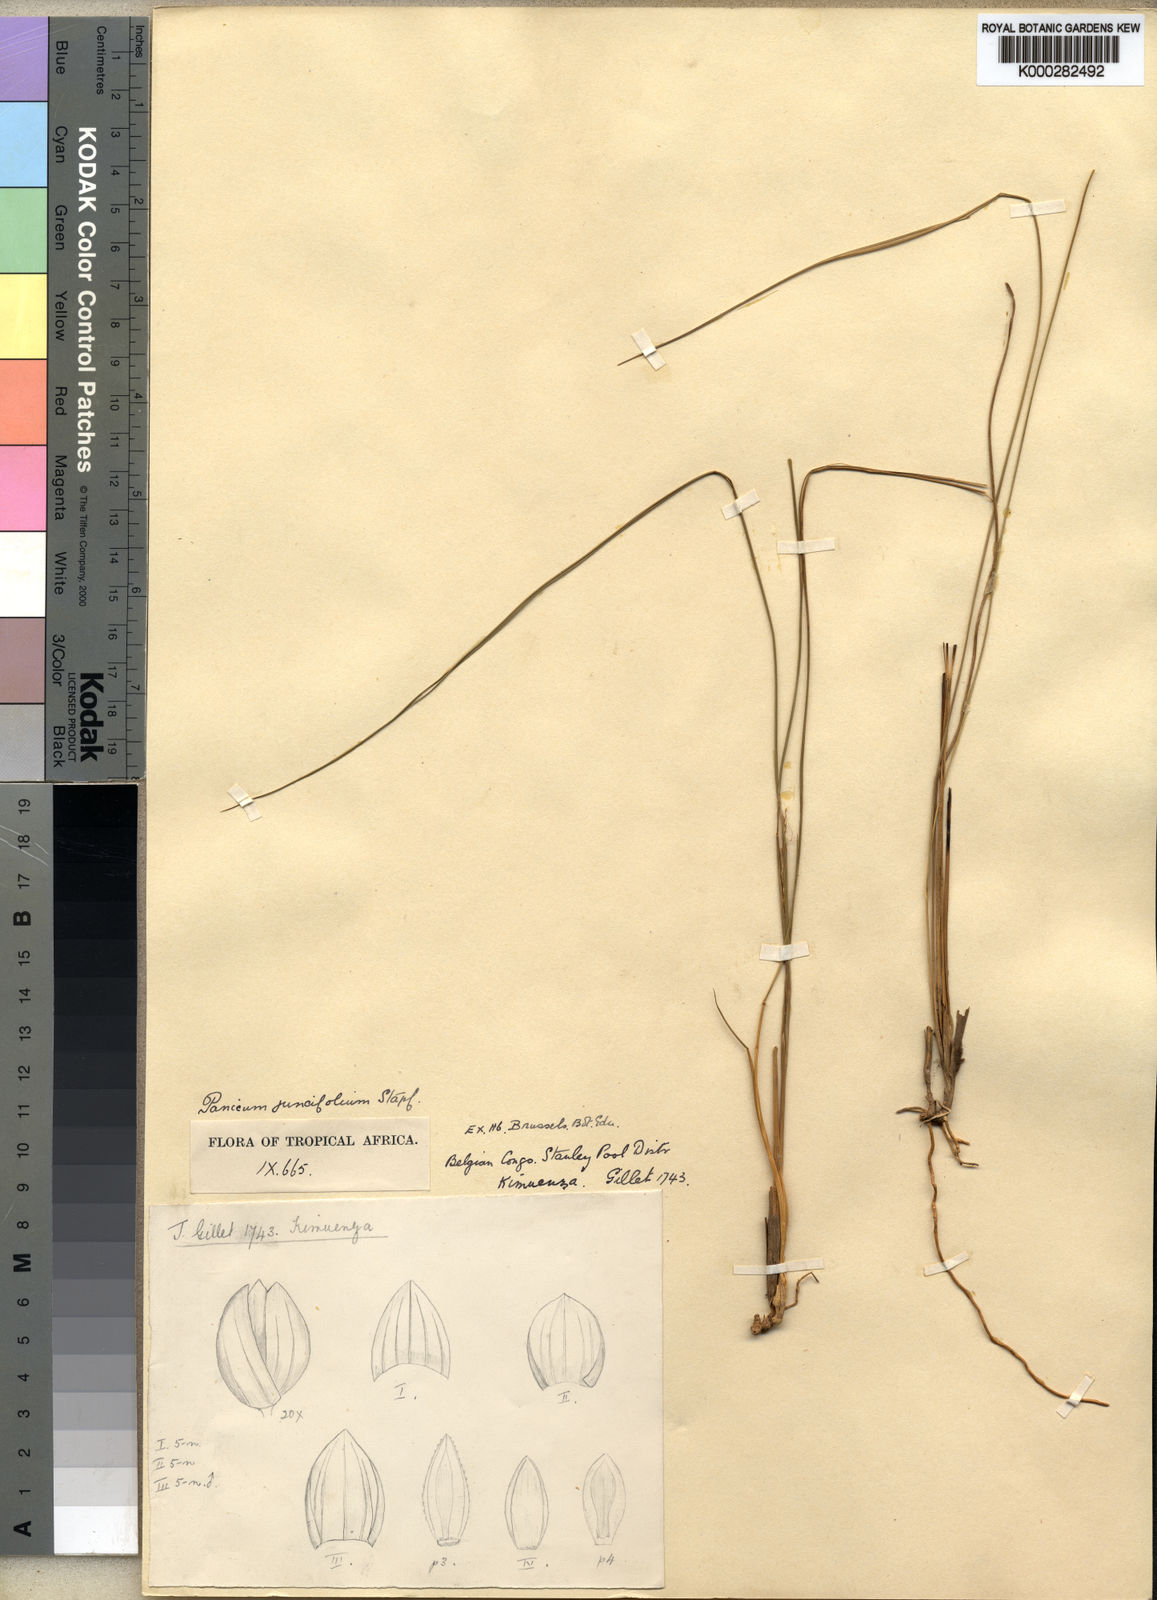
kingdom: Plantae
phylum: Tracheophyta
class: Liliopsida
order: Poales
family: Poaceae
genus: Trichanthecium
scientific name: Trichanthecium natalense
